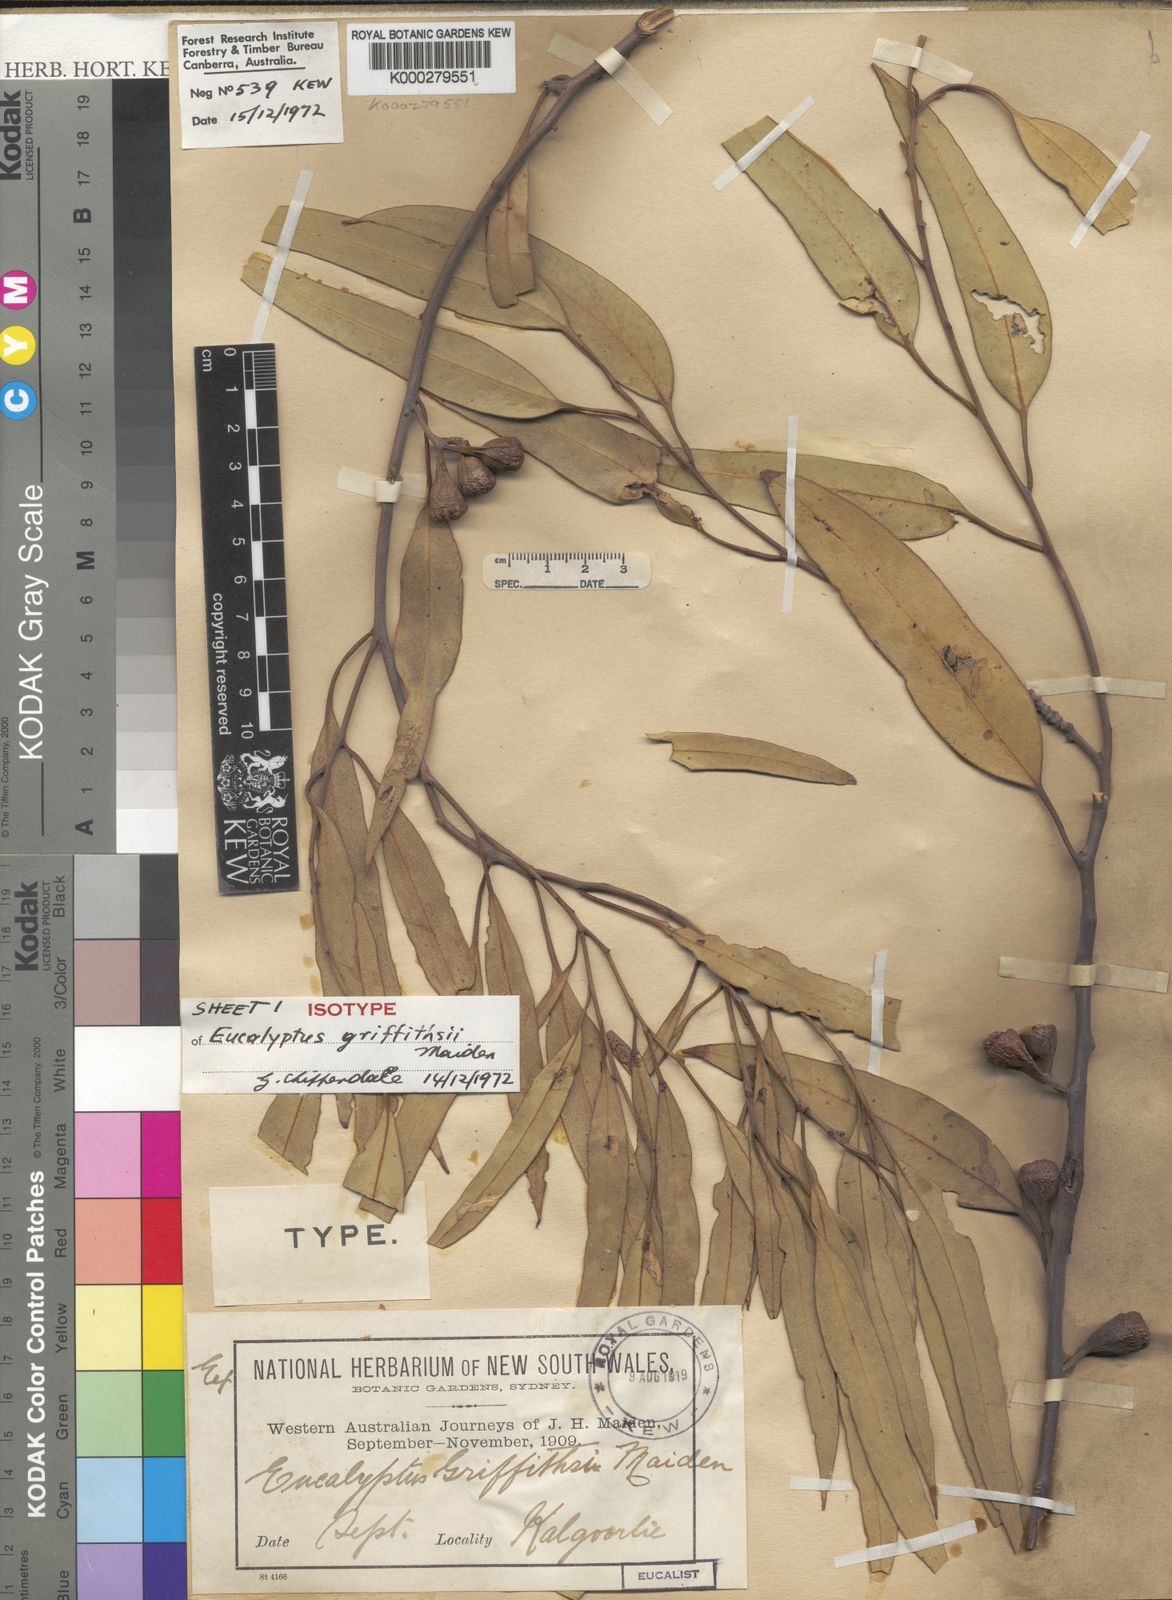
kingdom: Plantae
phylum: Tracheophyta
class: Magnoliopsida
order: Myrtales
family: Myrtaceae
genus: Eucalyptus
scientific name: Eucalyptus griffithsii
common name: Griffith's grey gum
